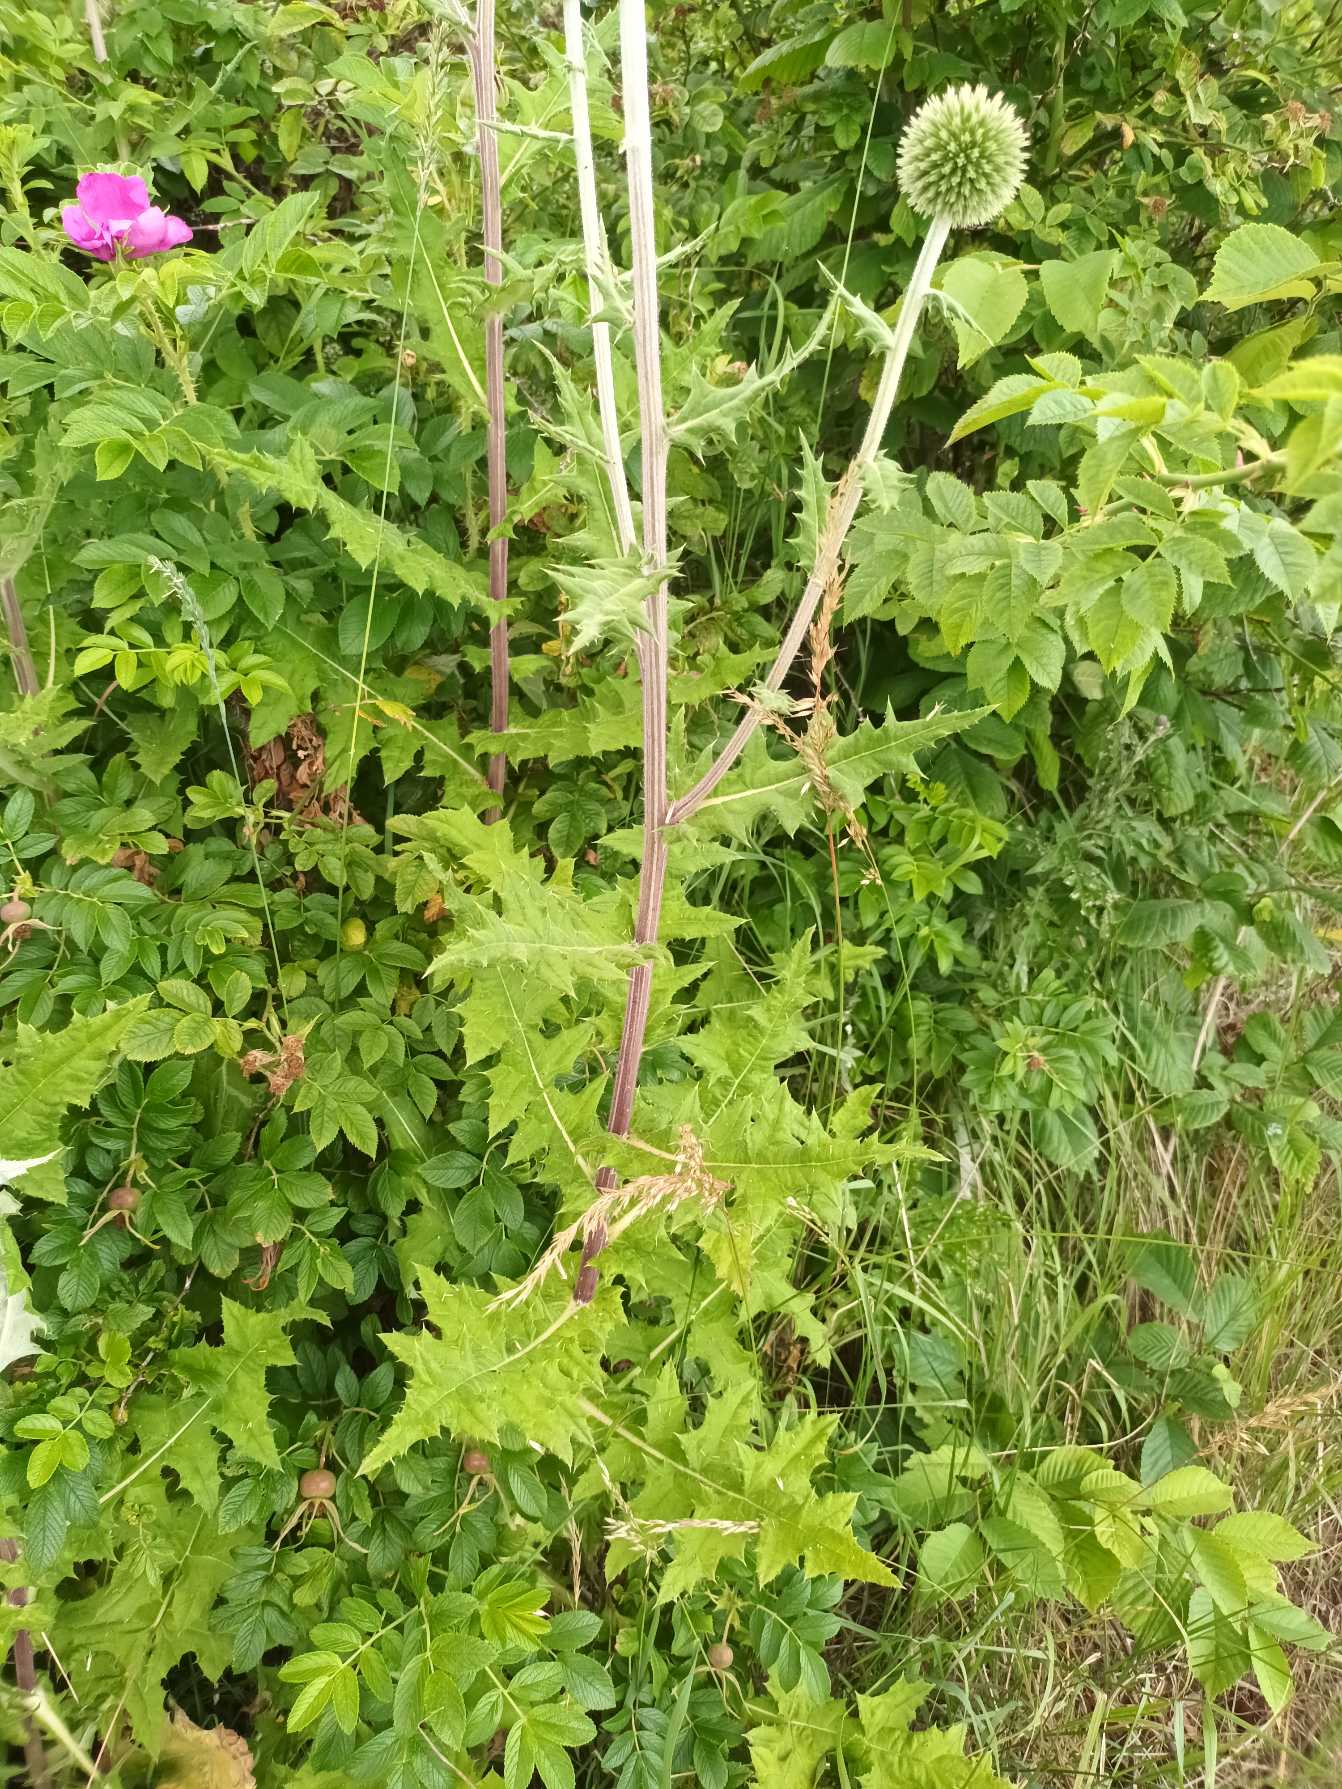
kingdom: Plantae
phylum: Tracheophyta
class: Magnoliopsida
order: Asterales
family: Asteraceae
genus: Echinops
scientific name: Echinops sphaerocephalus
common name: Fligetbladet tidselkugle
